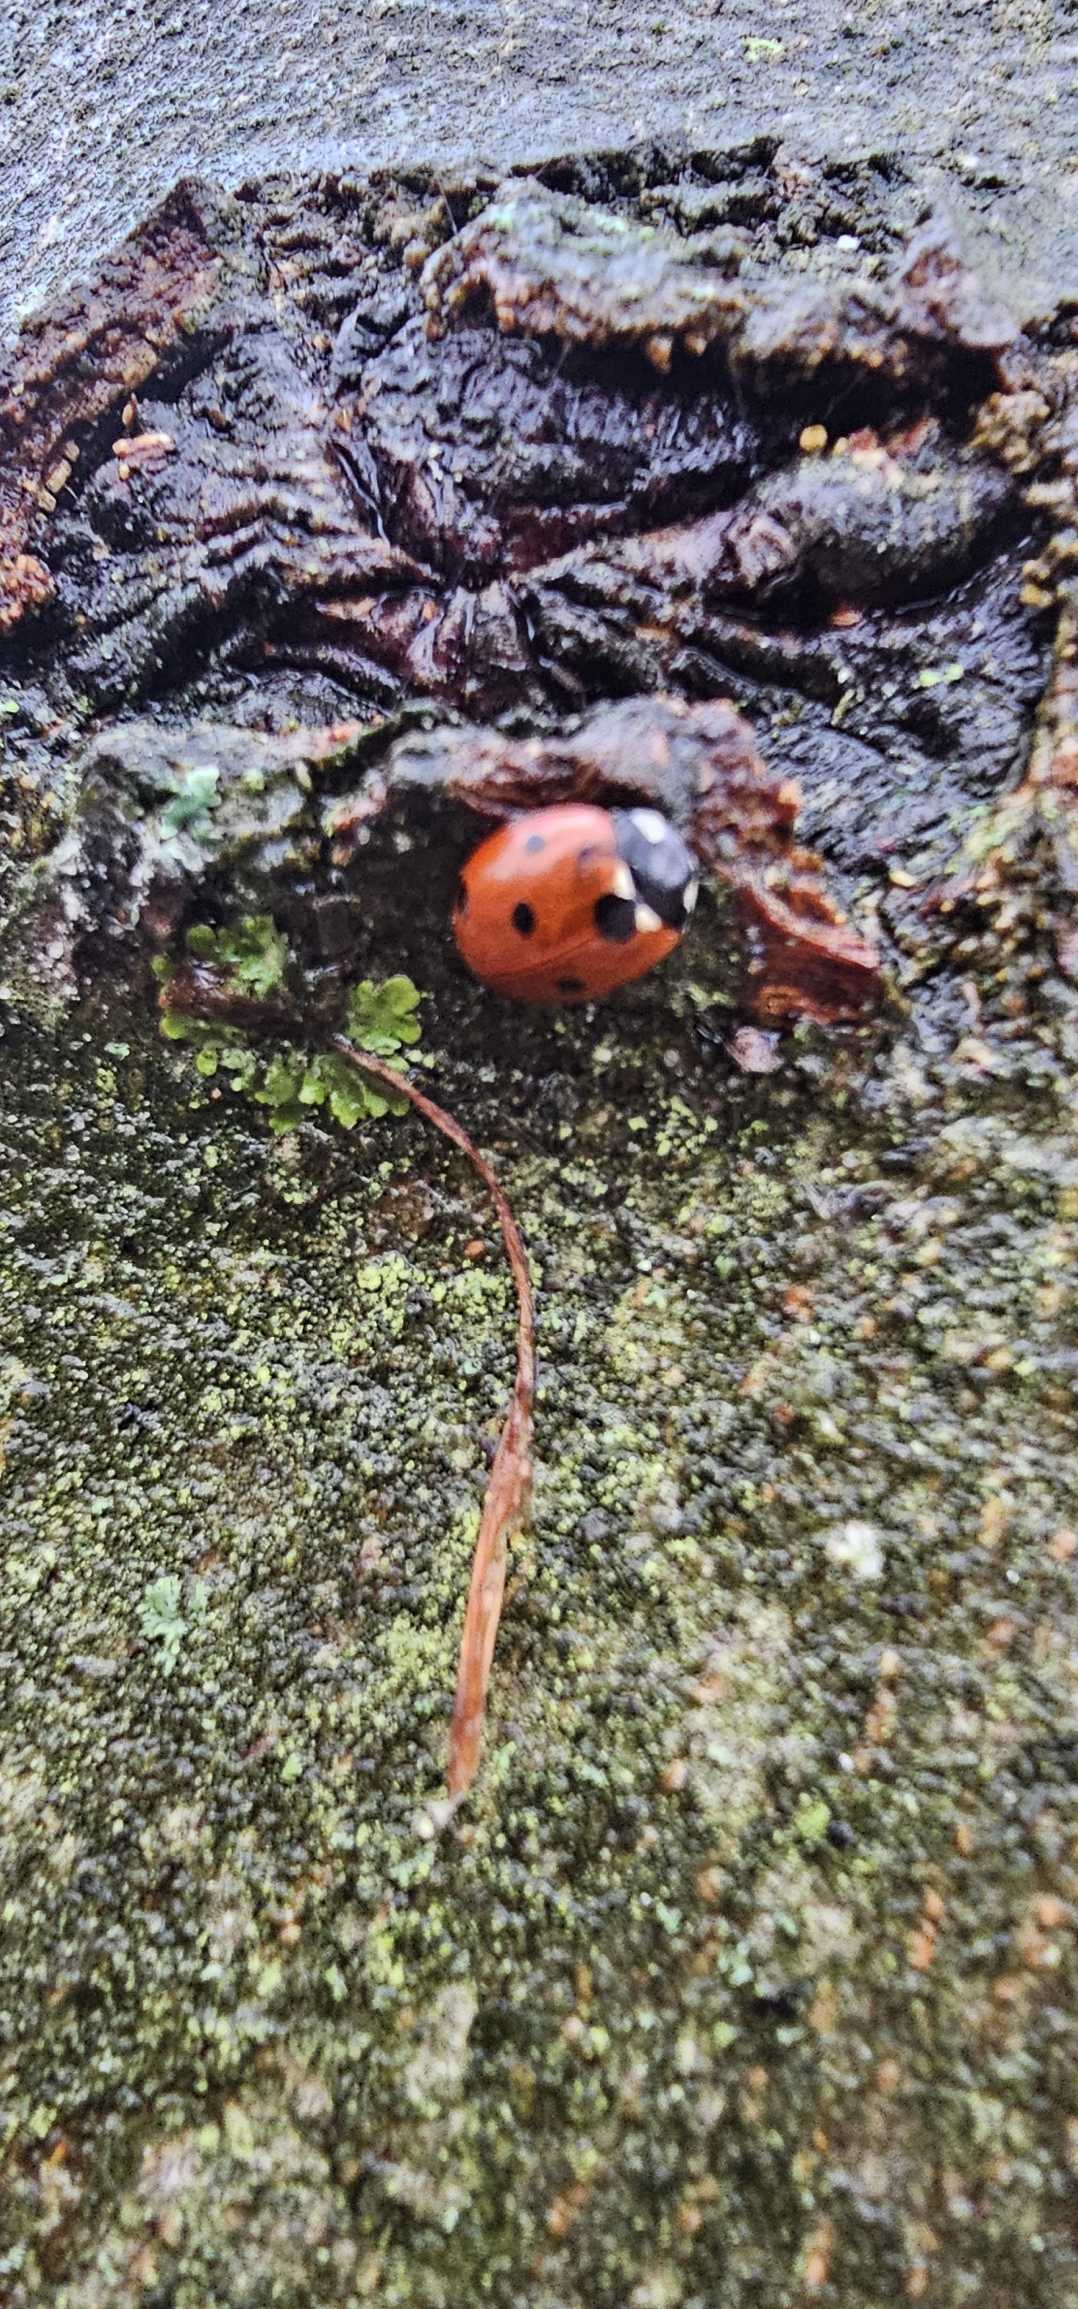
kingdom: Animalia
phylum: Arthropoda
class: Insecta
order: Coleoptera
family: Coccinellidae
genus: Coccinella
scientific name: Coccinella septempunctata
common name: Syvplettet mariehøne
